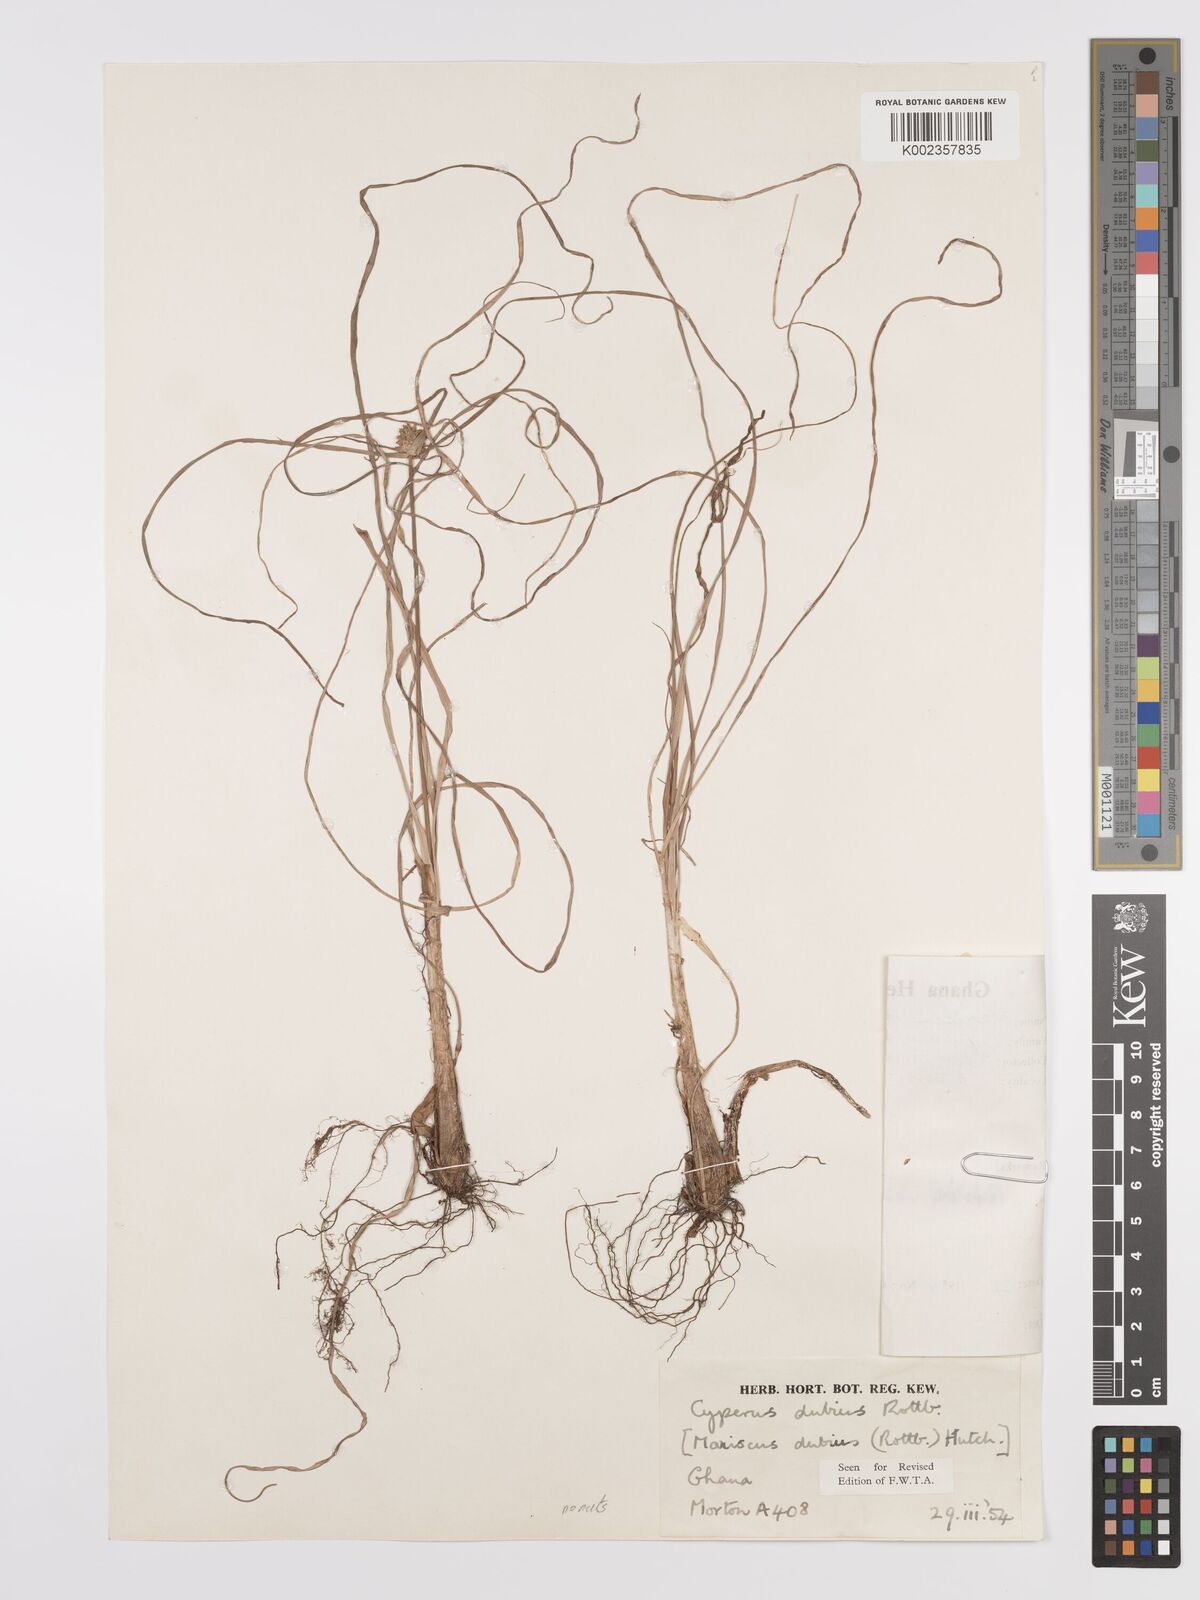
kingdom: Plantae
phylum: Tracheophyta
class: Liliopsida
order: Poales
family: Cyperaceae
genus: Cyperus
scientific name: Cyperus dubius
